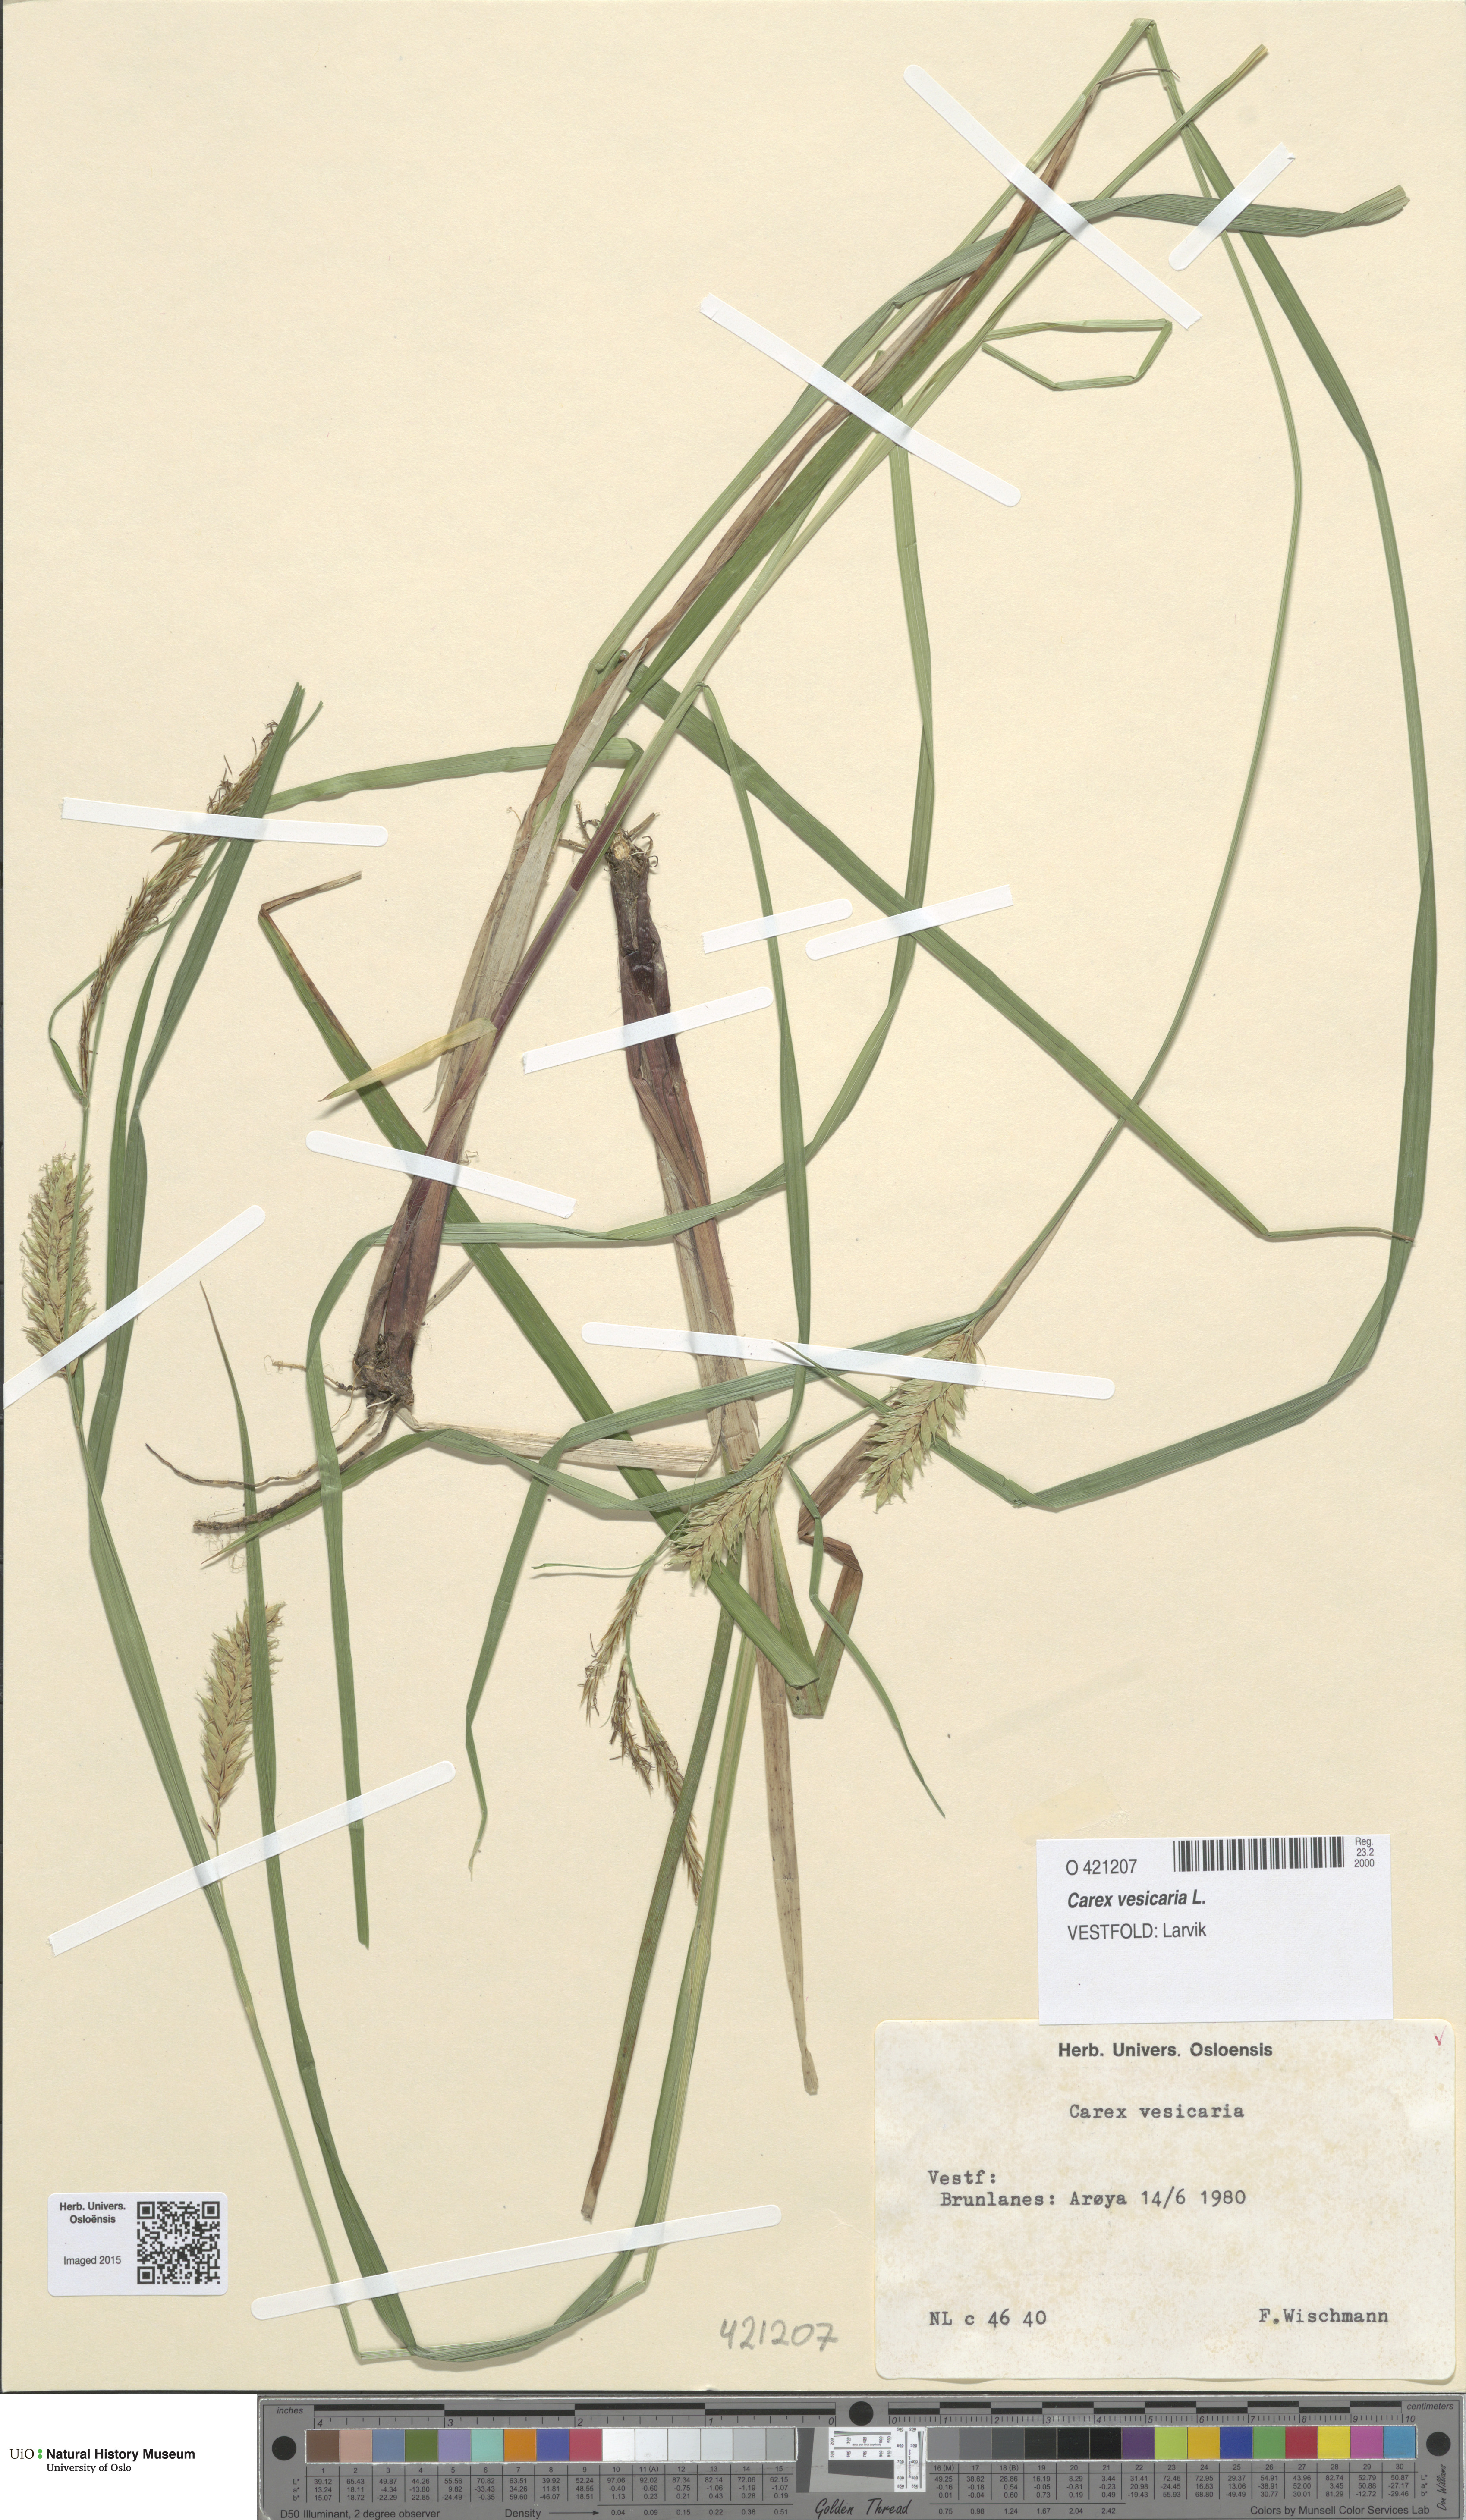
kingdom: Plantae
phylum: Tracheophyta
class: Liliopsida
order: Poales
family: Cyperaceae
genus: Carex
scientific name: Carex vesicaria
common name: Bladder-sedge
